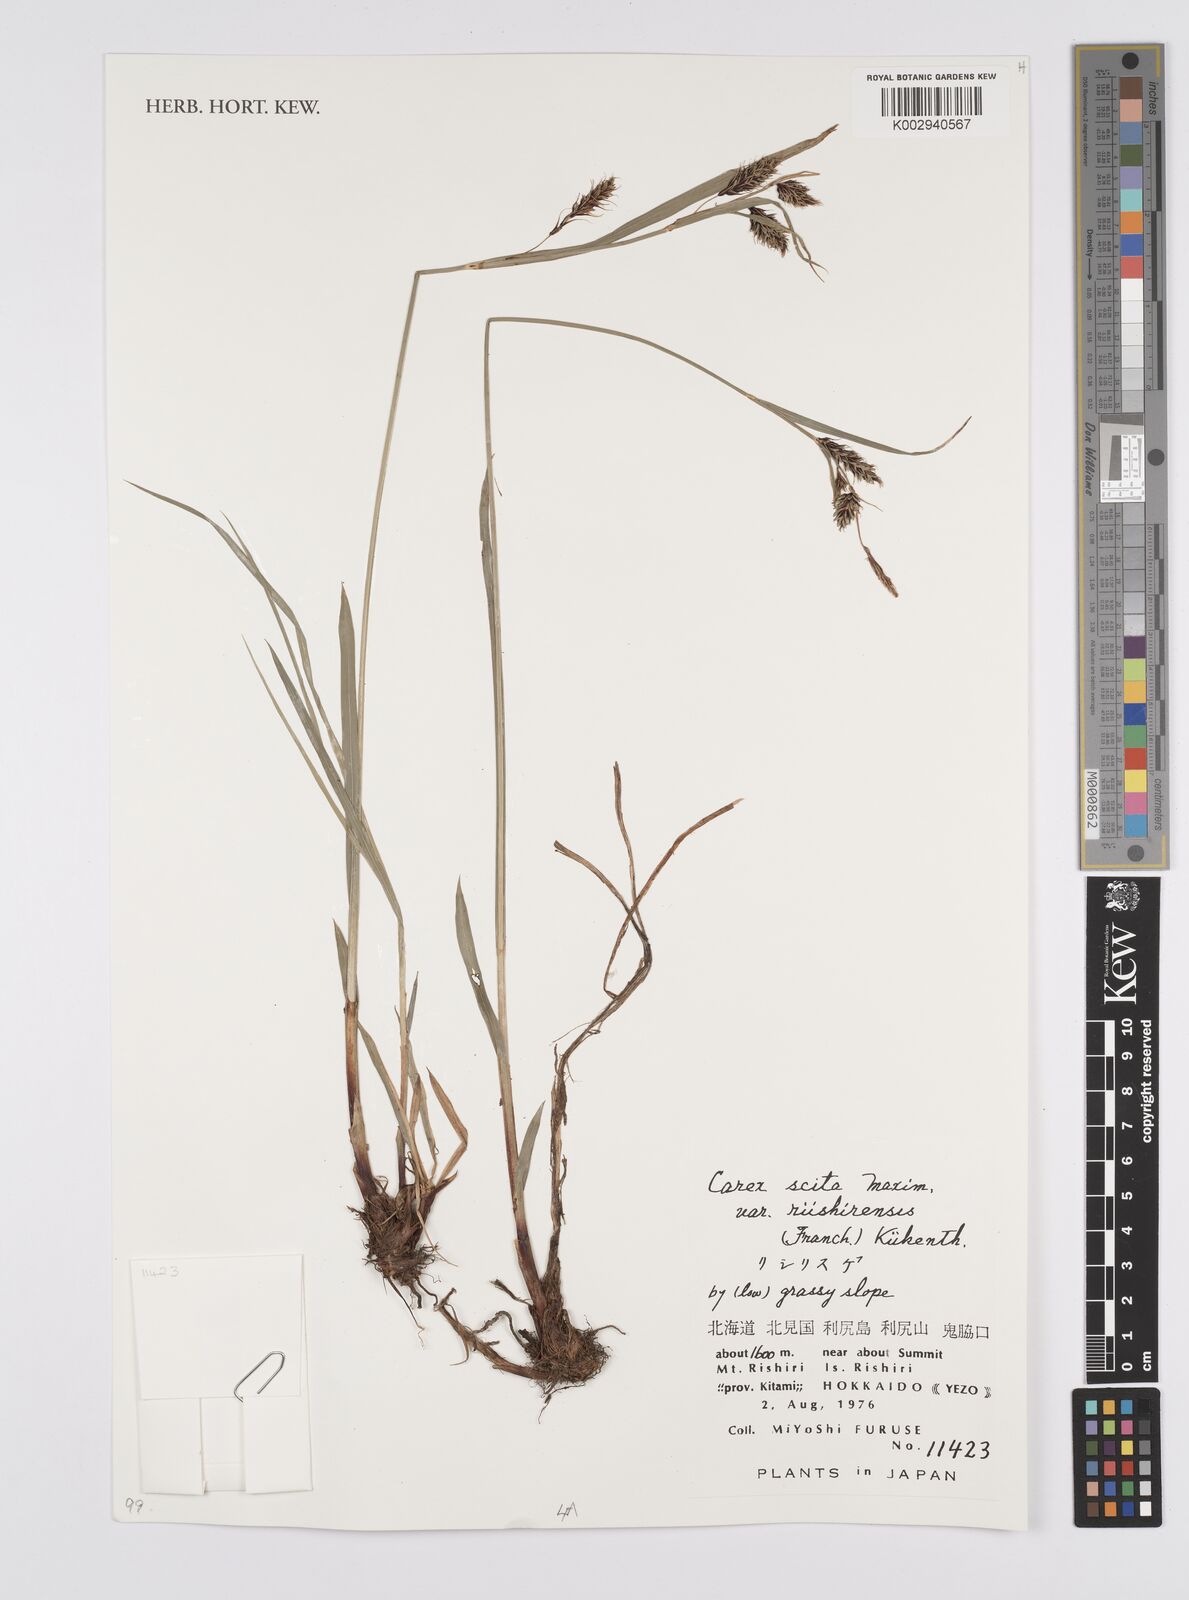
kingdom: Plantae
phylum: Tracheophyta
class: Liliopsida
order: Poales
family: Cyperaceae
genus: Carex
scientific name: Carex scita
